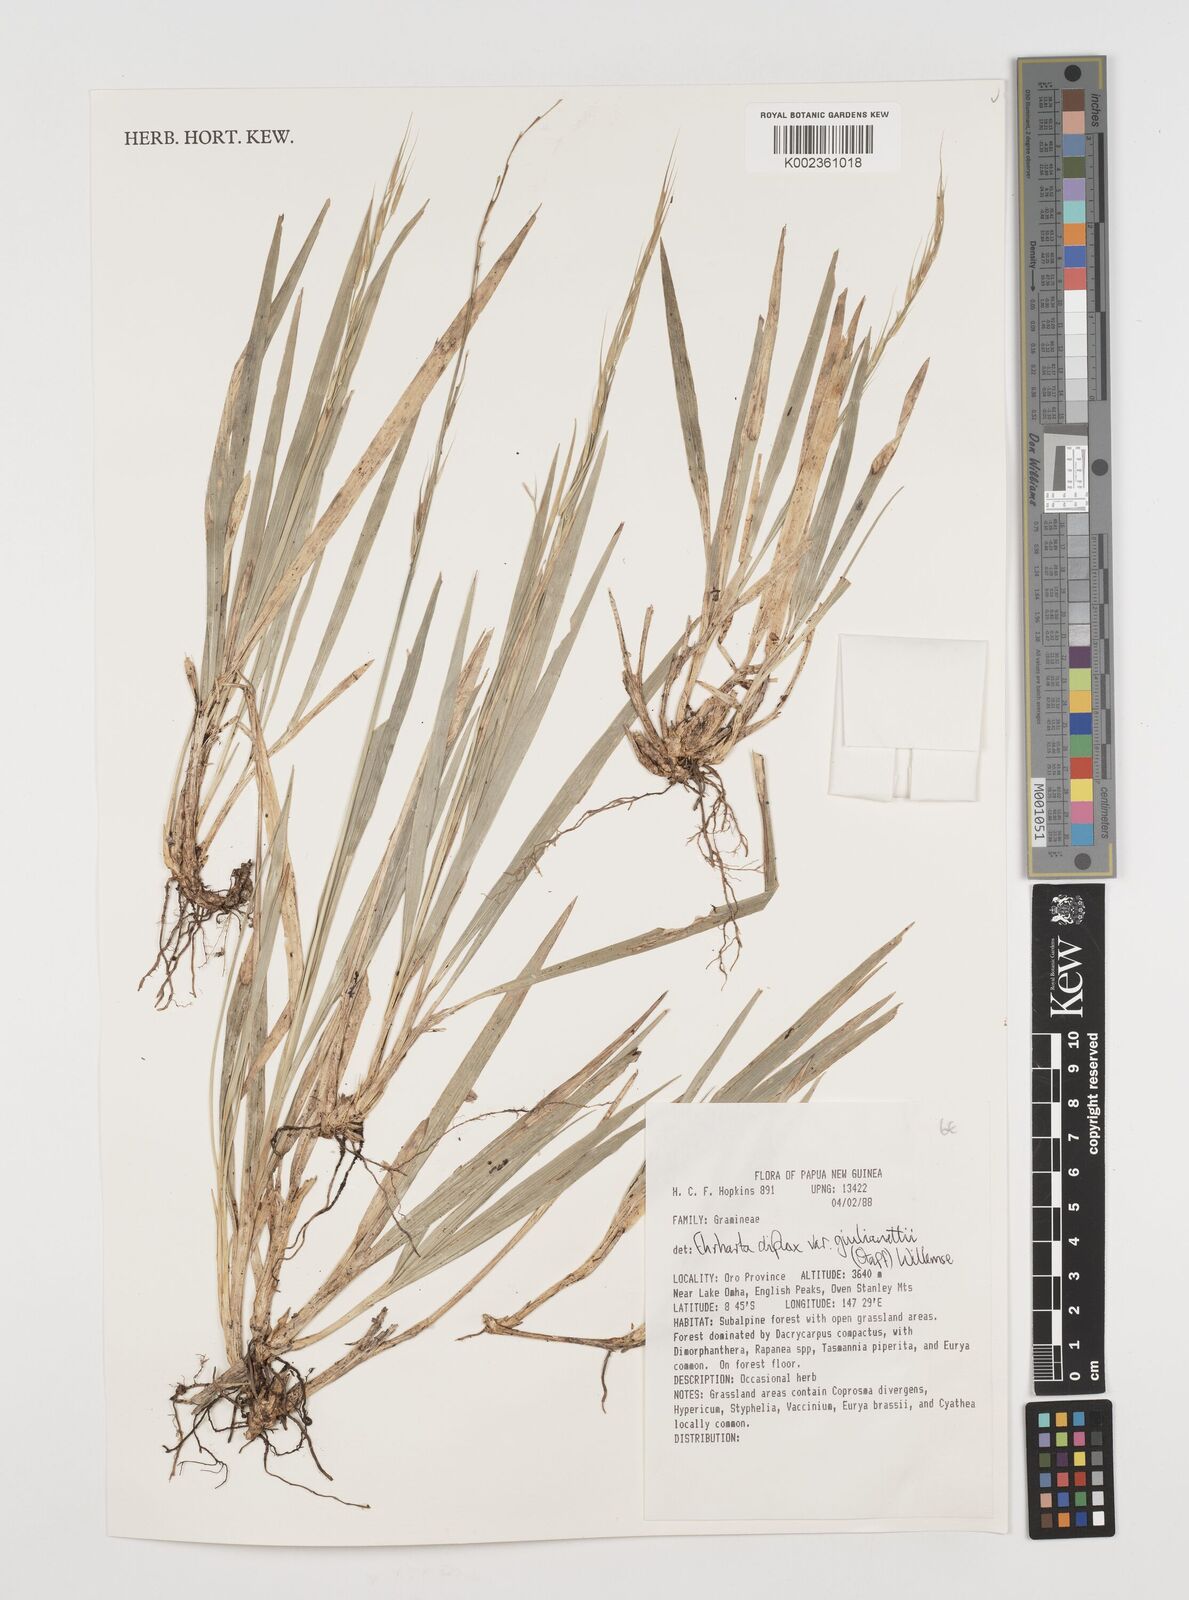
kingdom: Plantae
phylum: Tracheophyta
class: Liliopsida
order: Poales
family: Poaceae
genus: Ehrharta
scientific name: Ehrharta diplax
